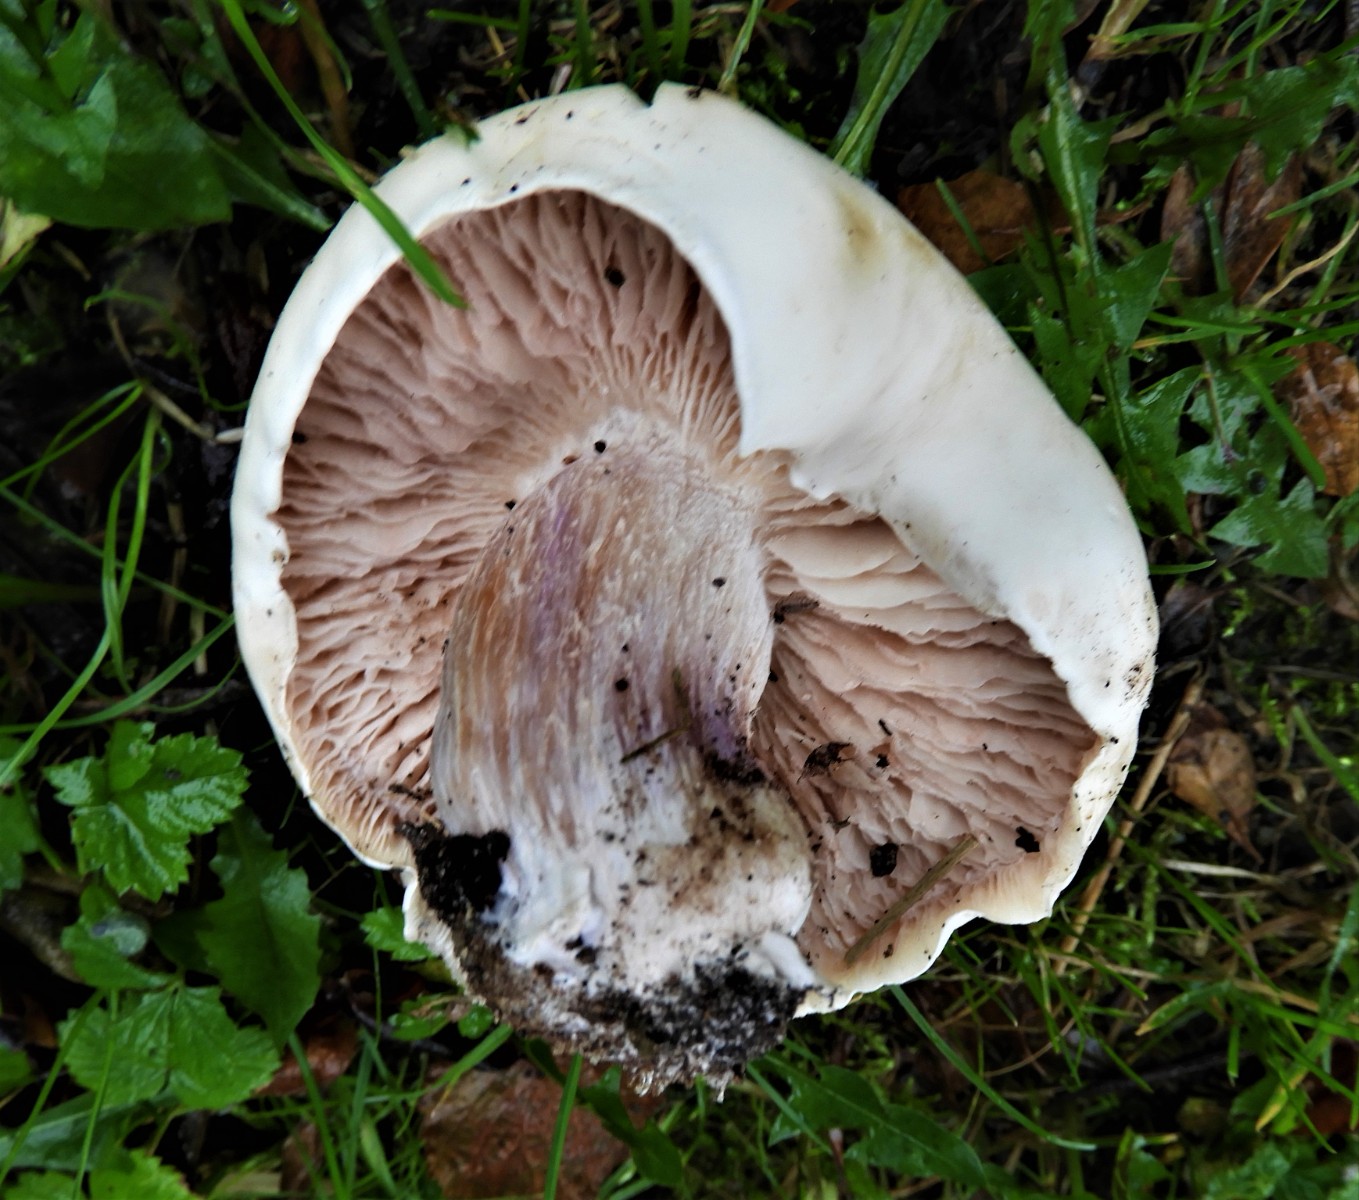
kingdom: Fungi
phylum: Basidiomycota
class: Agaricomycetes
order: Agaricales
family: Tricholomataceae
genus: Lepista
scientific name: Lepista personata
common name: bleg hekseringshat
